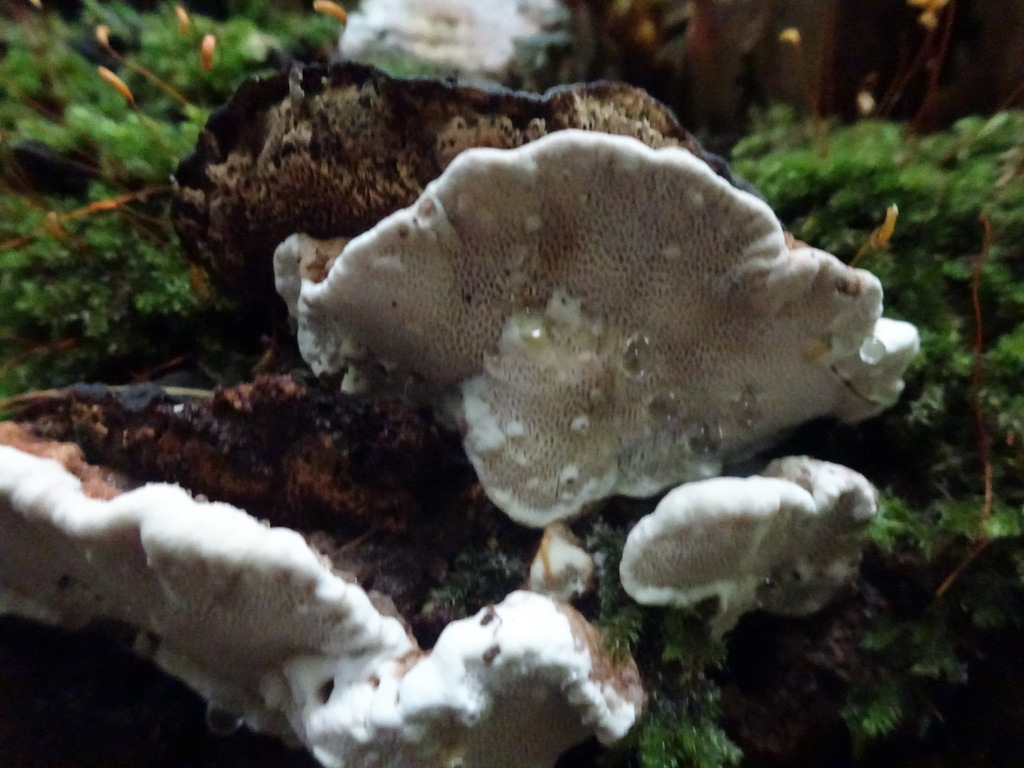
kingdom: Fungi
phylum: Basidiomycota
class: Agaricomycetes
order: Russulales
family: Bondarzewiaceae
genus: Heterobasidion
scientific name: Heterobasidion annosum
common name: almindelig rodfordærver
